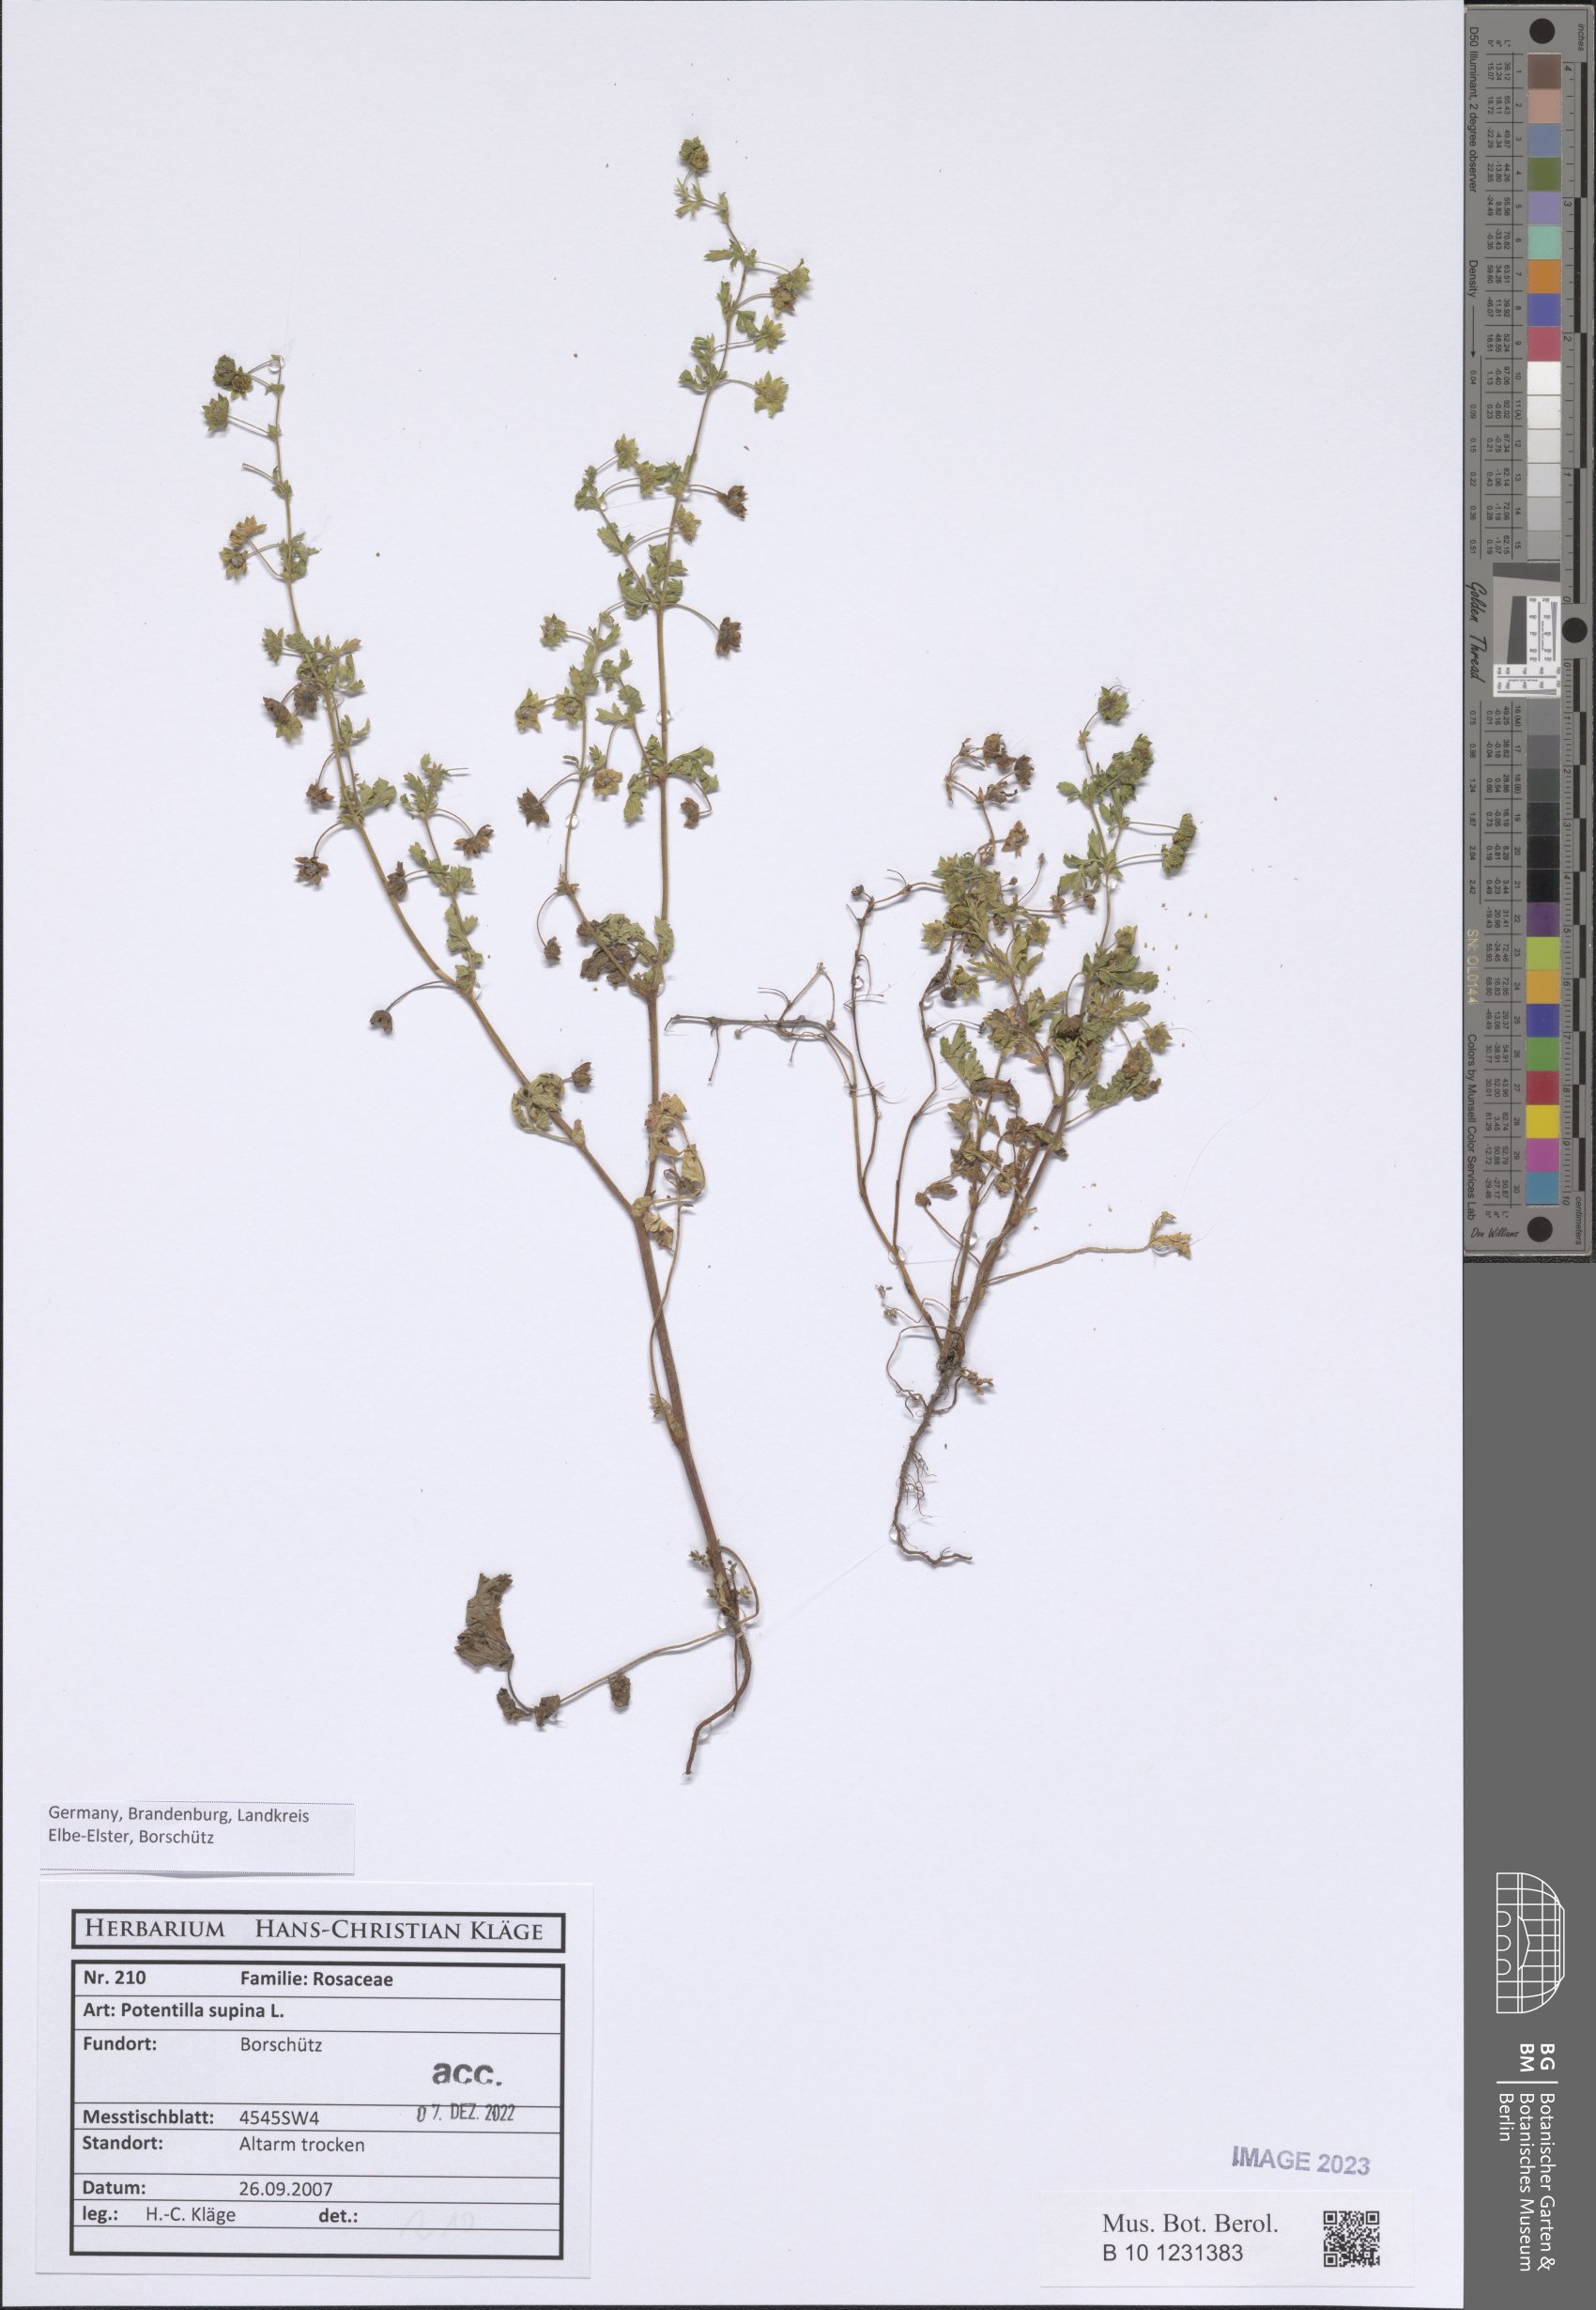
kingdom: Plantae
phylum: Tracheophyta
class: Magnoliopsida
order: Rosales
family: Rosaceae
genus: Potentilla
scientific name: Potentilla supina
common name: Prostrate cinquefoil
